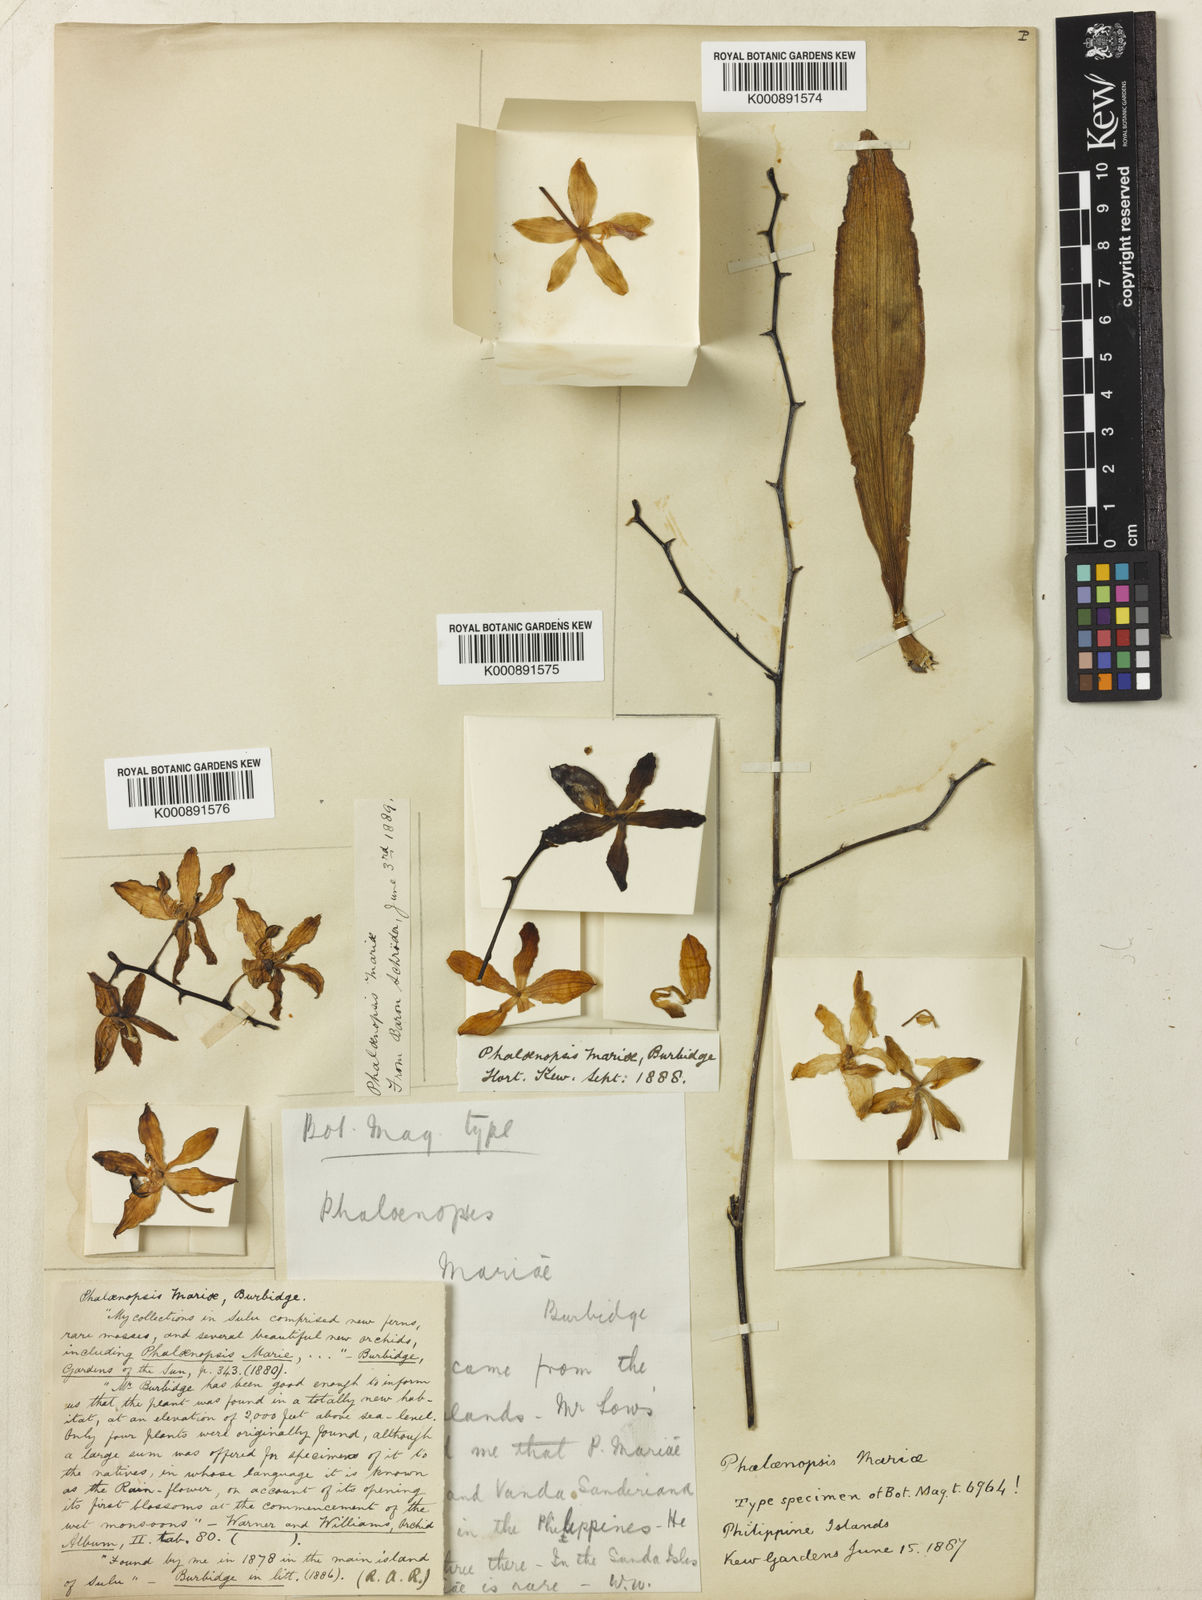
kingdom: Plantae
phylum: Tracheophyta
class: Liliopsida
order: Asparagales
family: Orchidaceae
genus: Phalaenopsis
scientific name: Phalaenopsis mariae
